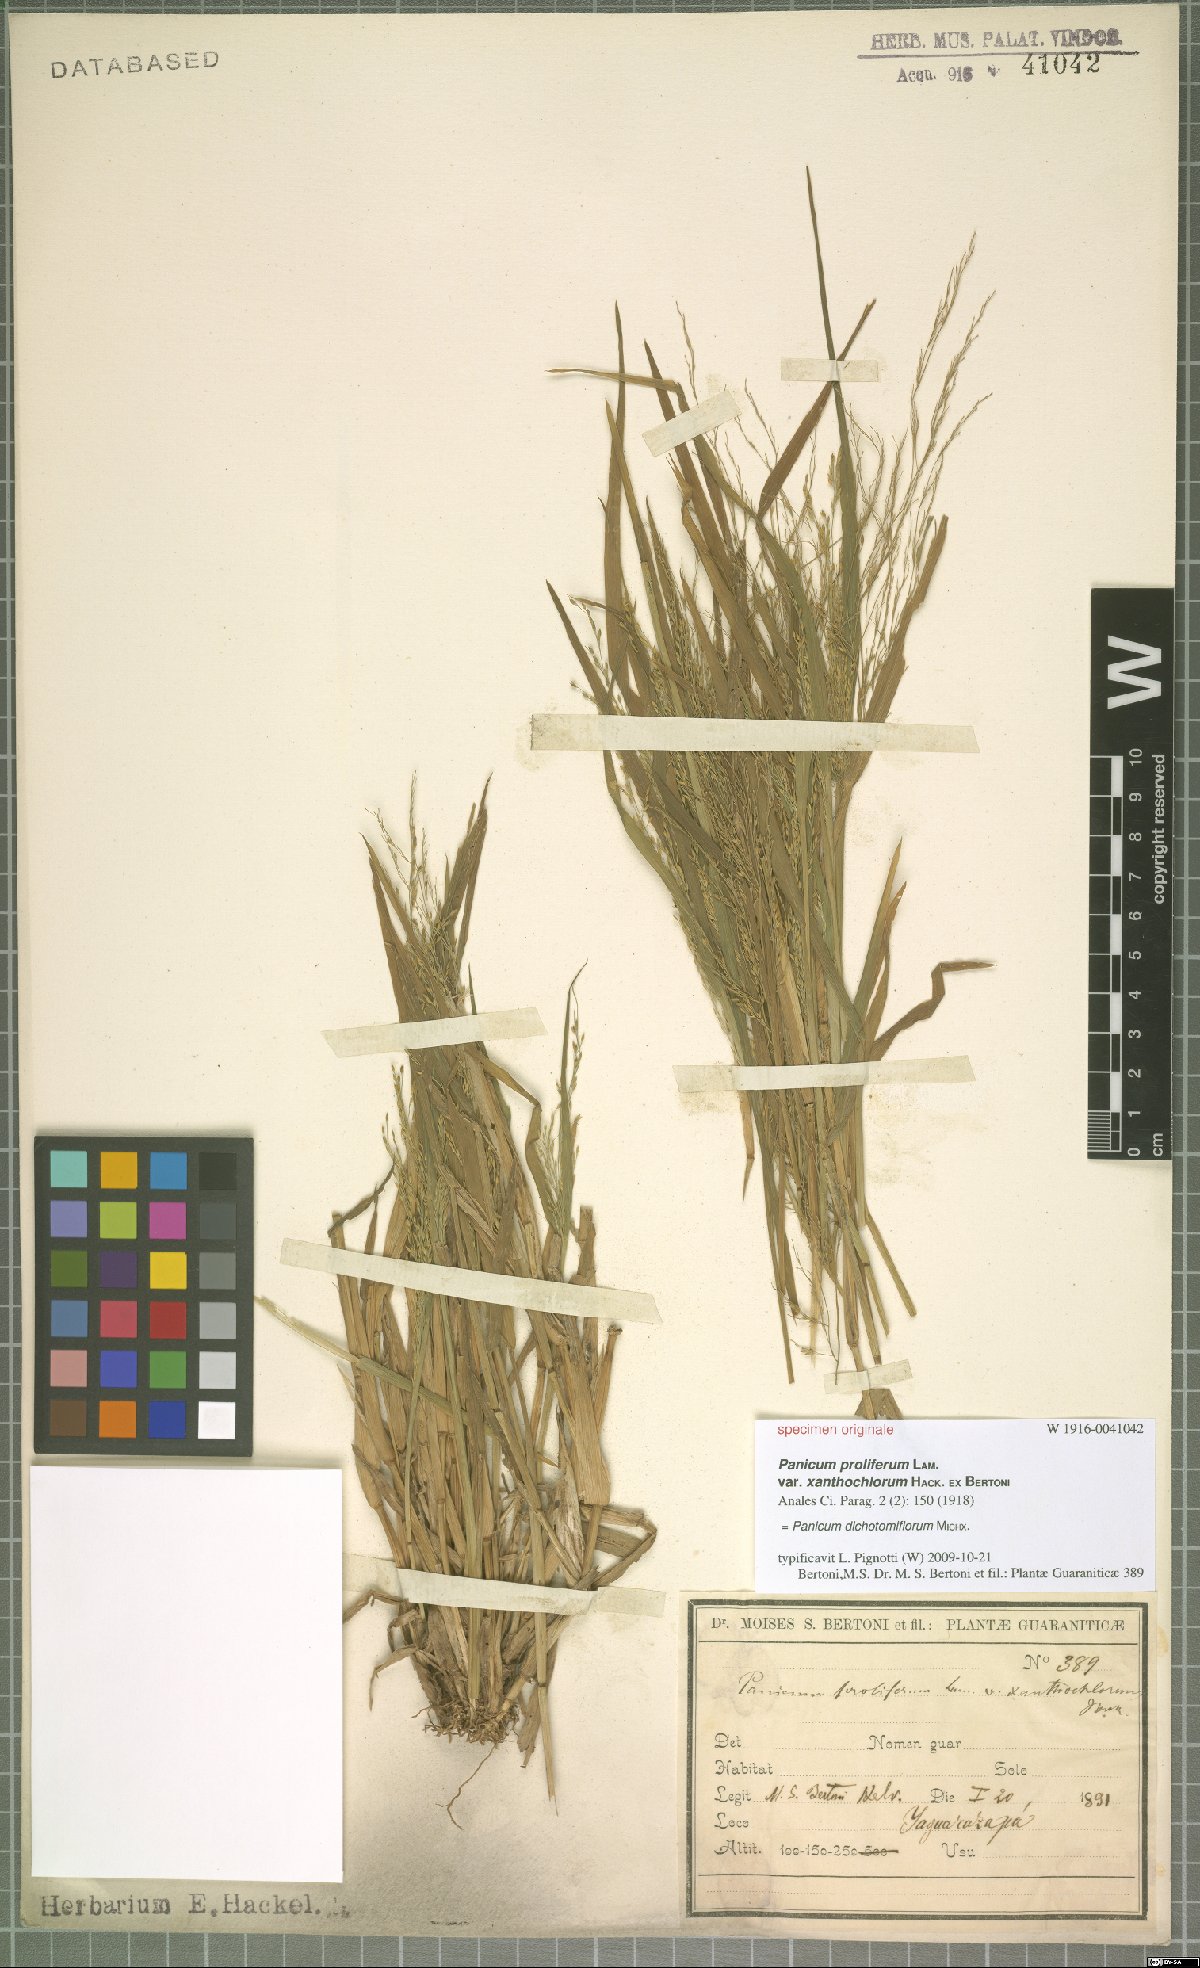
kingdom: Plantae
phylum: Tracheophyta
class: Liliopsida
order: Poales
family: Poaceae
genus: Panicum
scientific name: Panicum dichotomiflorum
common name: Autumn millet
